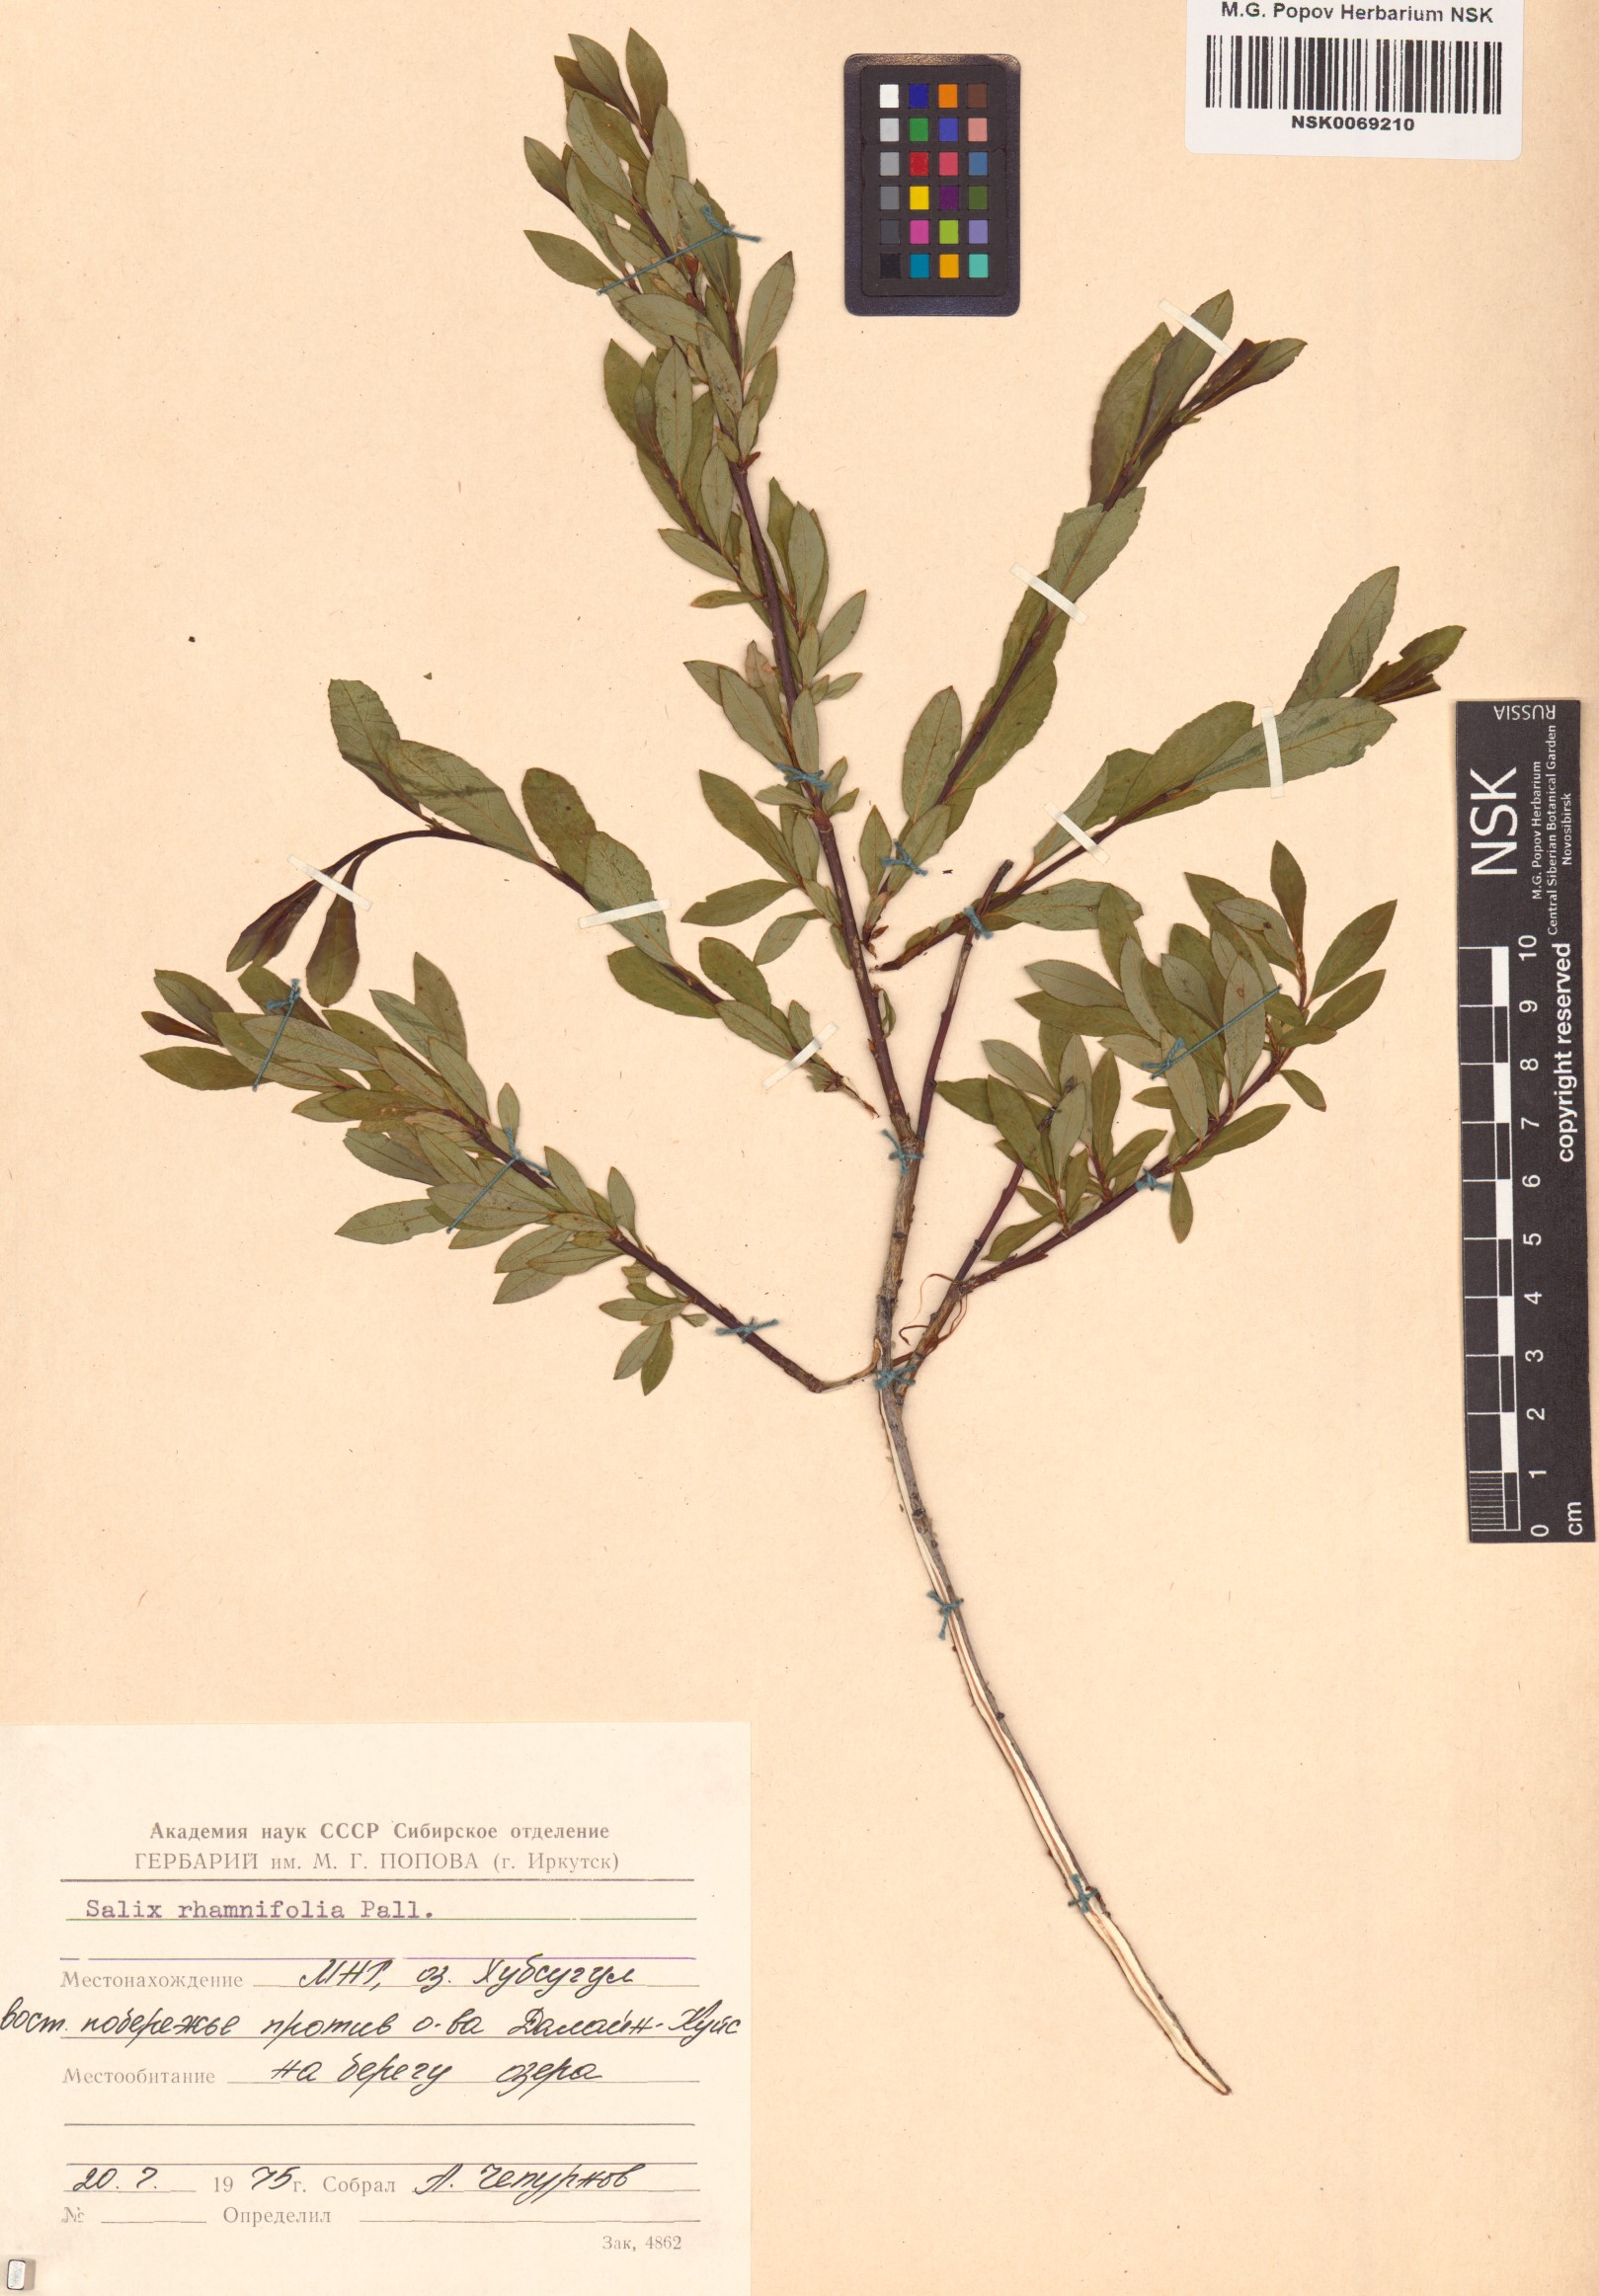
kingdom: Plantae
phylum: Tracheophyta
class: Magnoliopsida
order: Malpighiales
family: Salicaceae
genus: Salix
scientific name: Salix rhamnifolia
